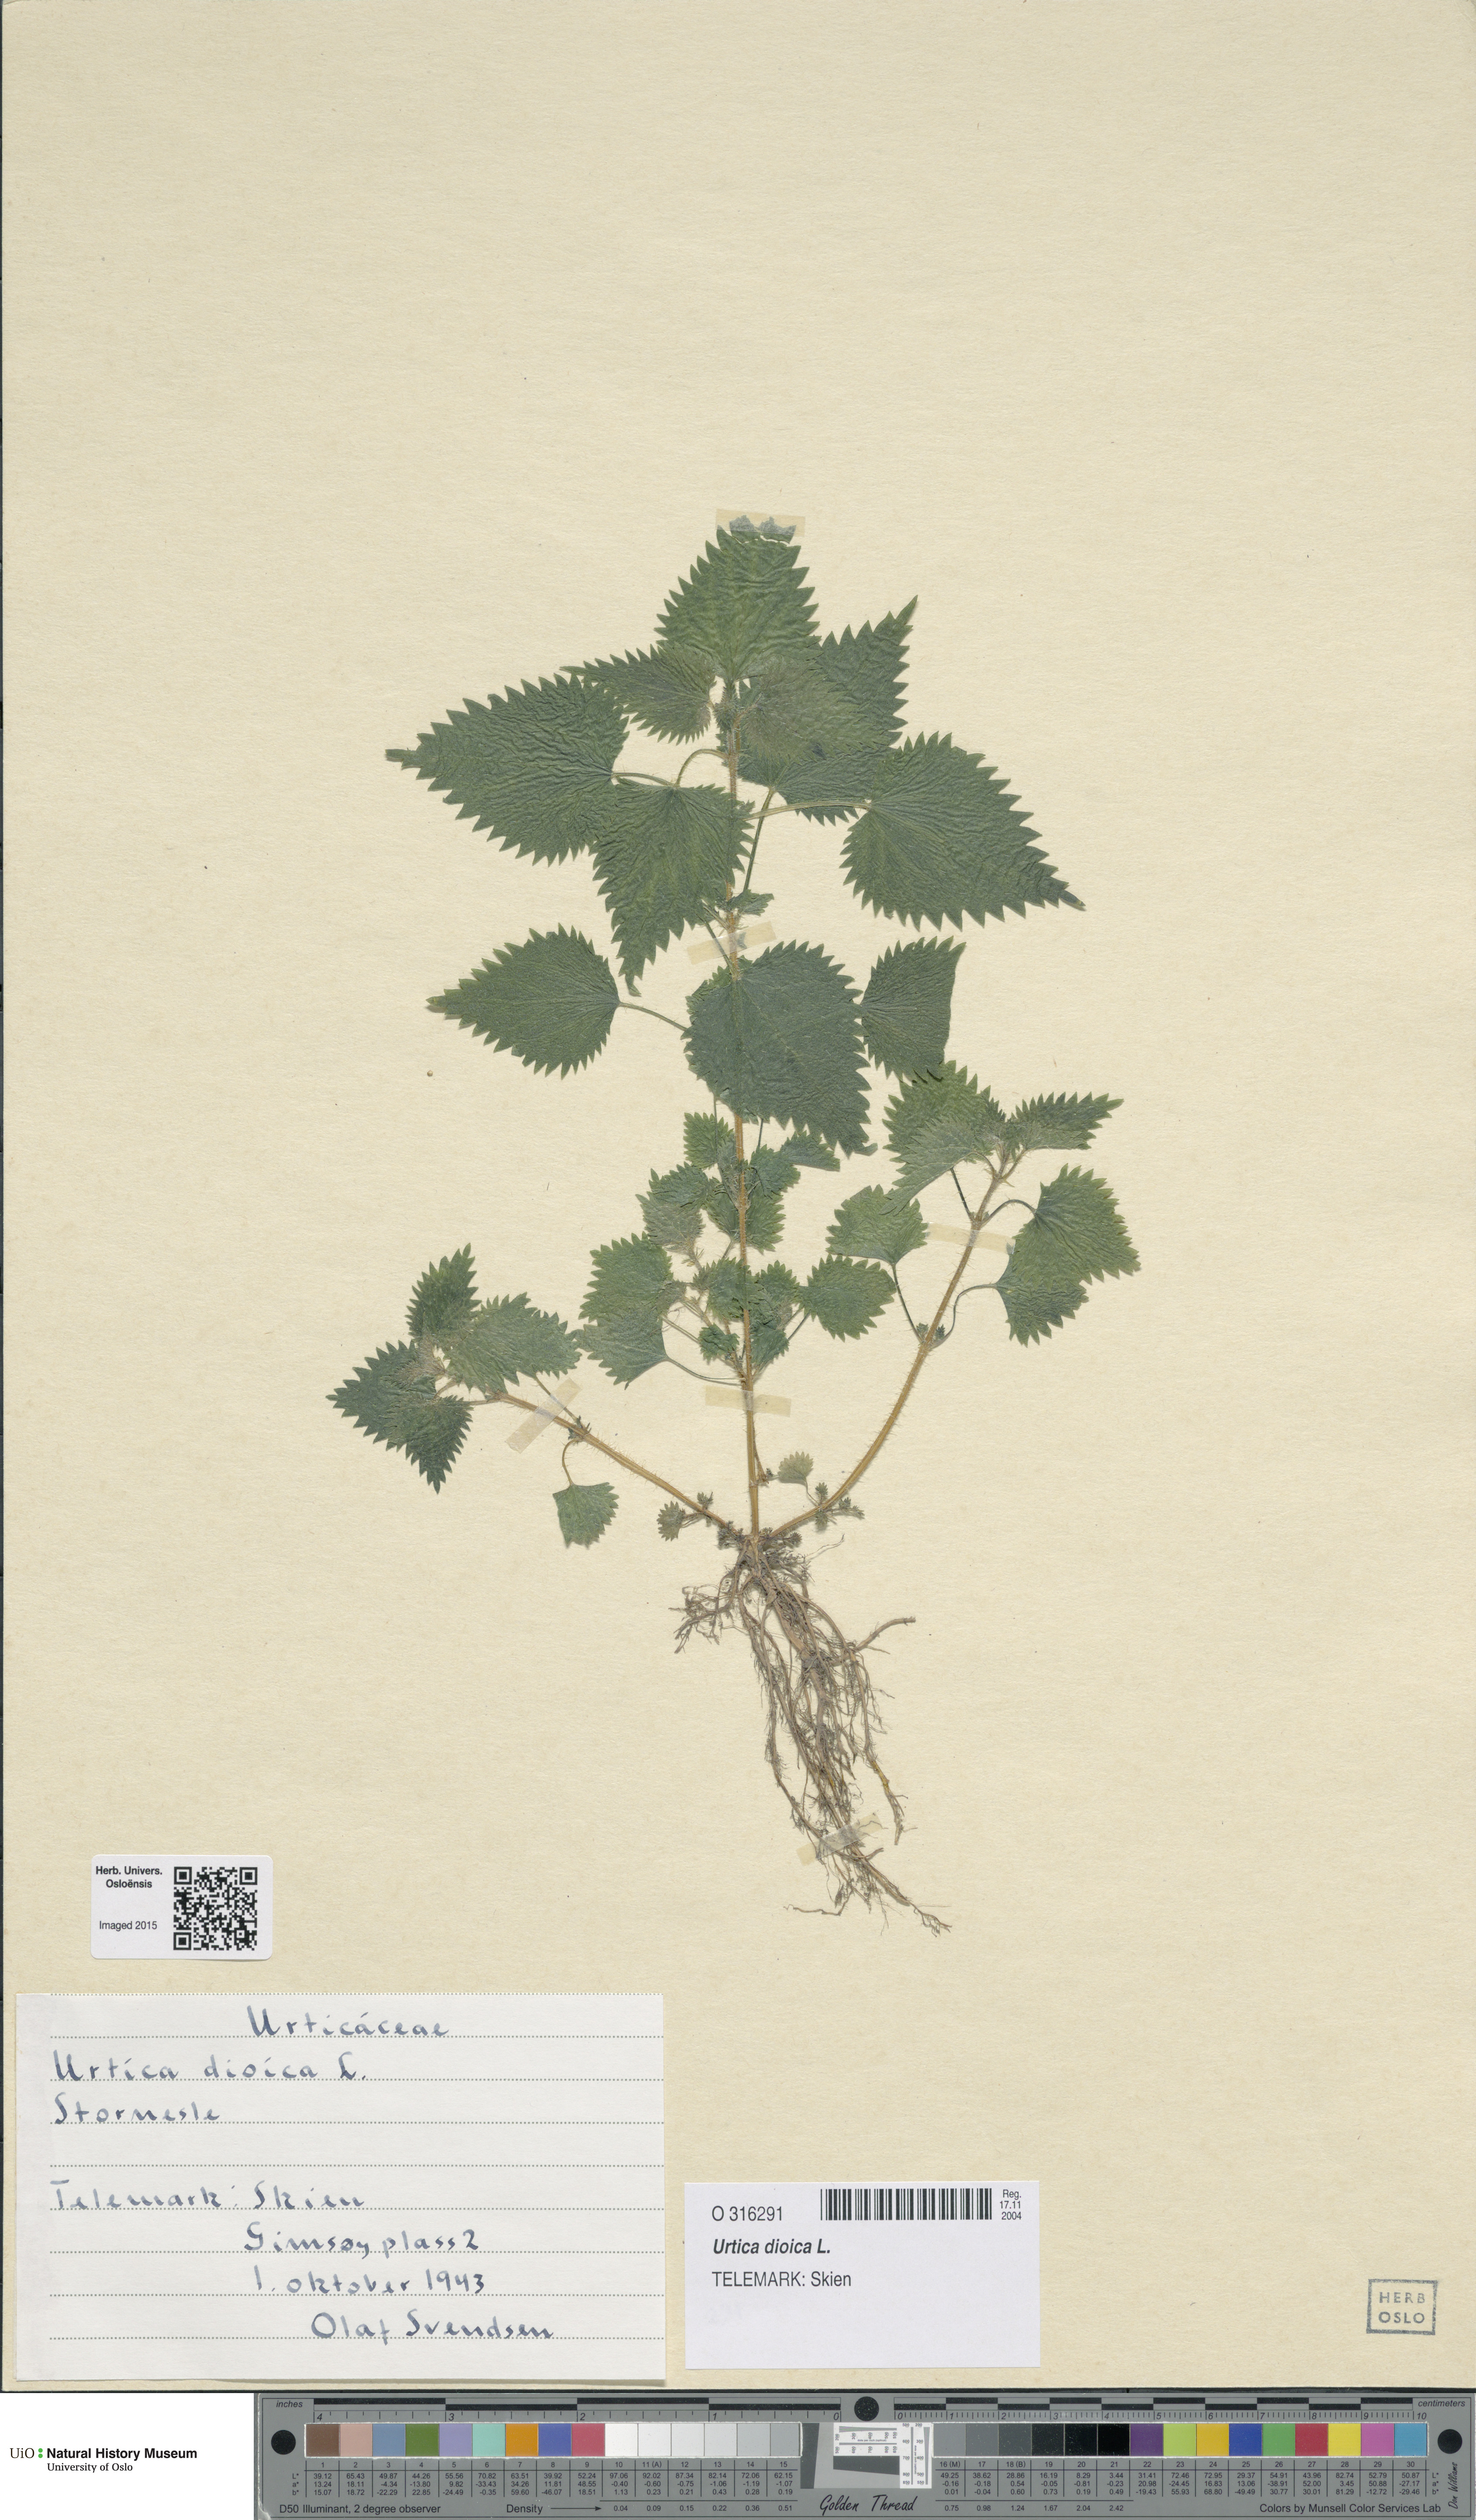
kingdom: Plantae
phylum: Tracheophyta
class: Magnoliopsida
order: Rosales
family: Urticaceae
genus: Urtica
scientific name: Urtica dioica
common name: Common nettle
